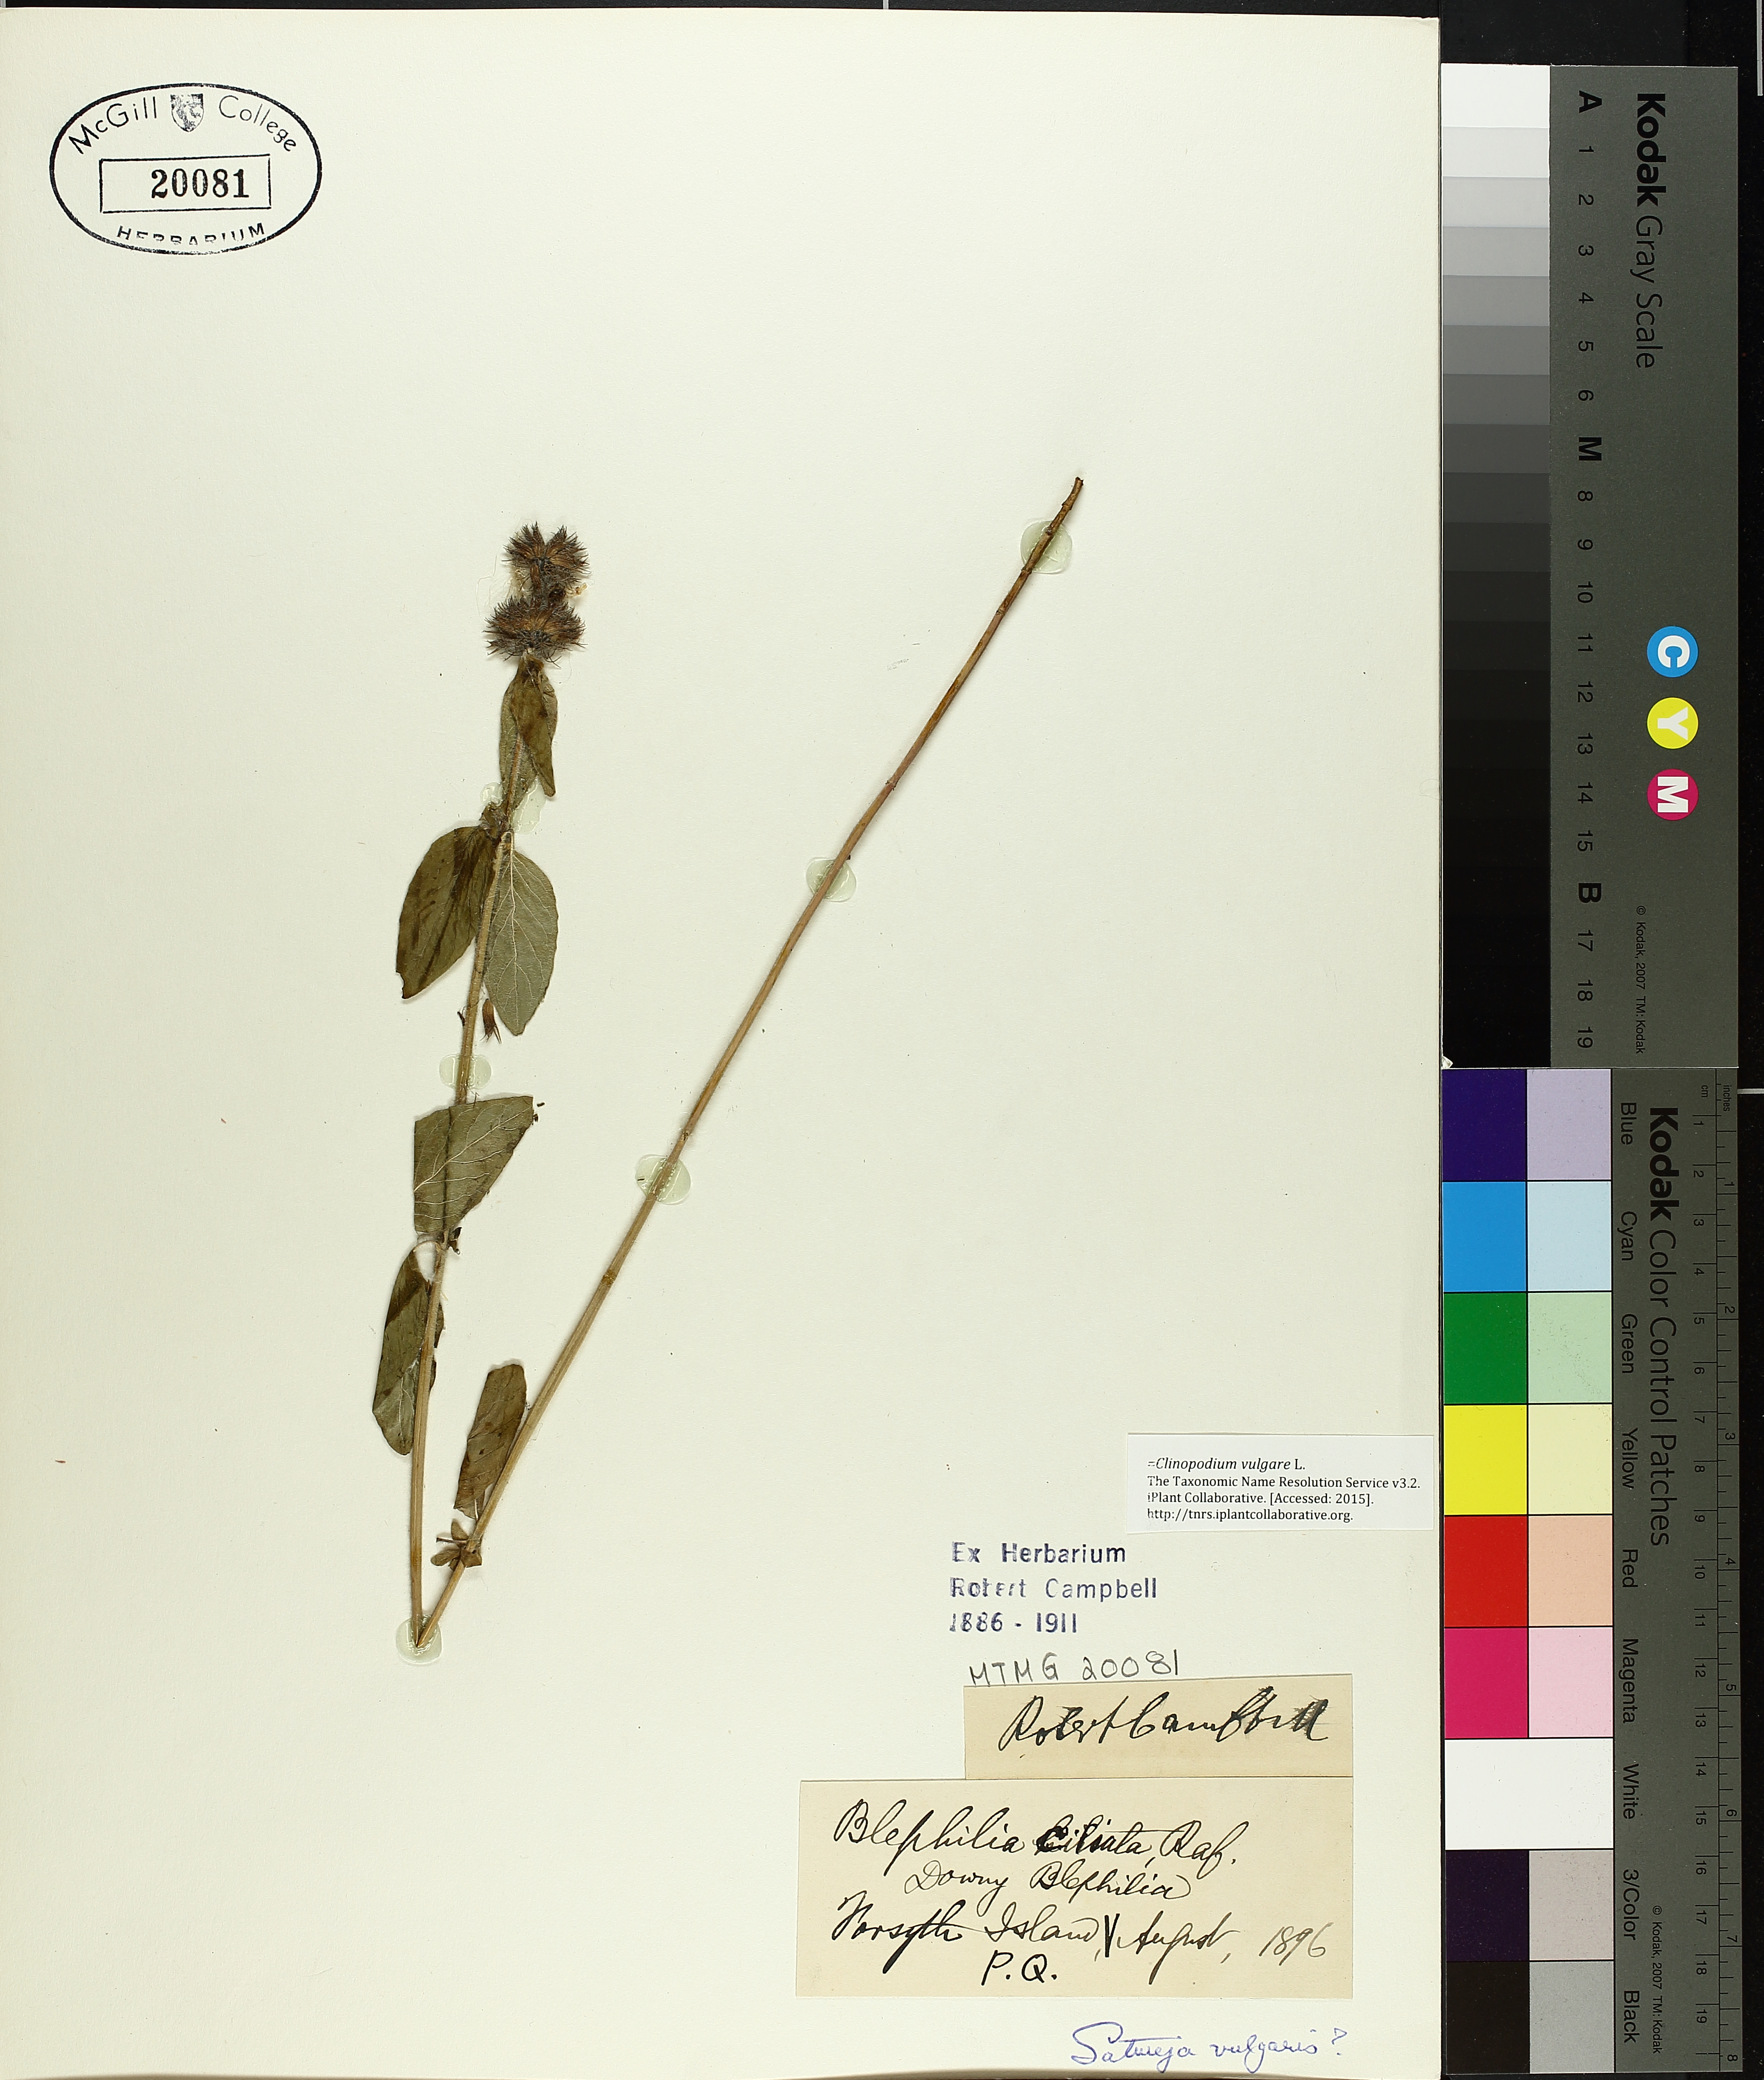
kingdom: Plantae
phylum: Tracheophyta
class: Magnoliopsida
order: Lamiales
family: Lamiaceae
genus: Clinopodium
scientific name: Clinopodium vulgare
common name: Wild basil
